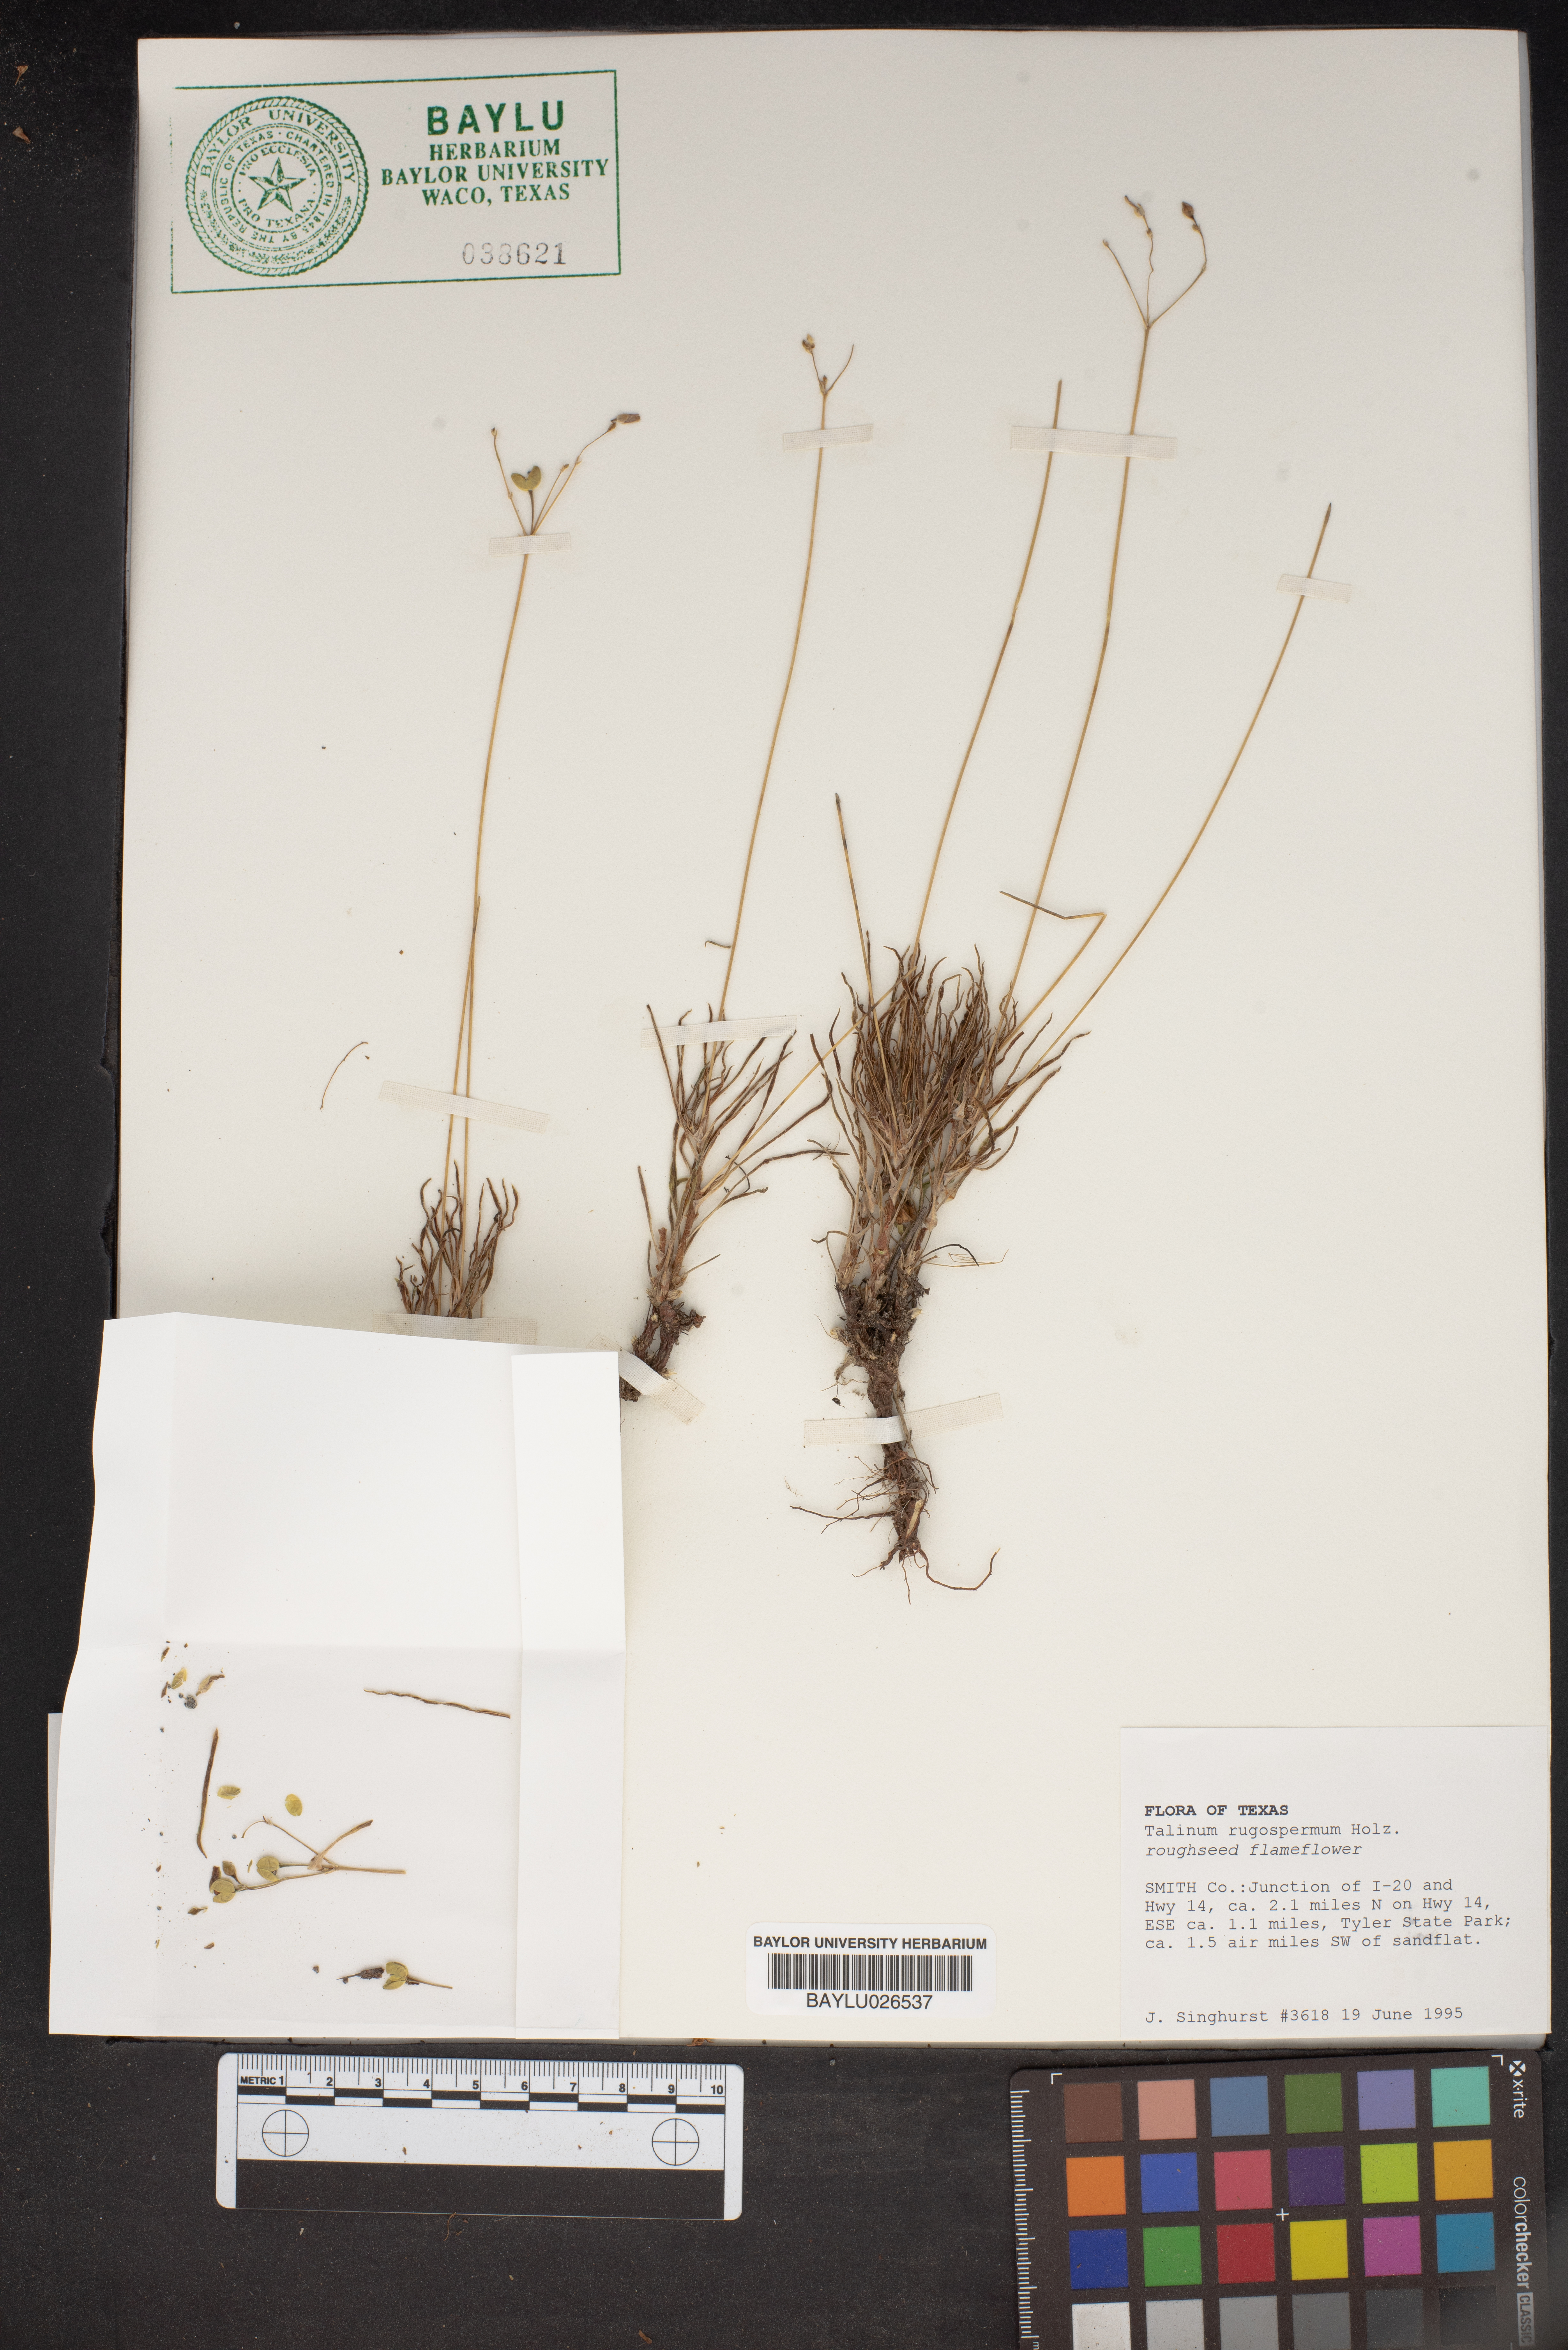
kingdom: Plantae
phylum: Tracheophyta
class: Magnoliopsida
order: Caryophyllales
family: Montiaceae
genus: Phemeranthus
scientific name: Phemeranthus rugospermus
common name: Prairie fameflower
